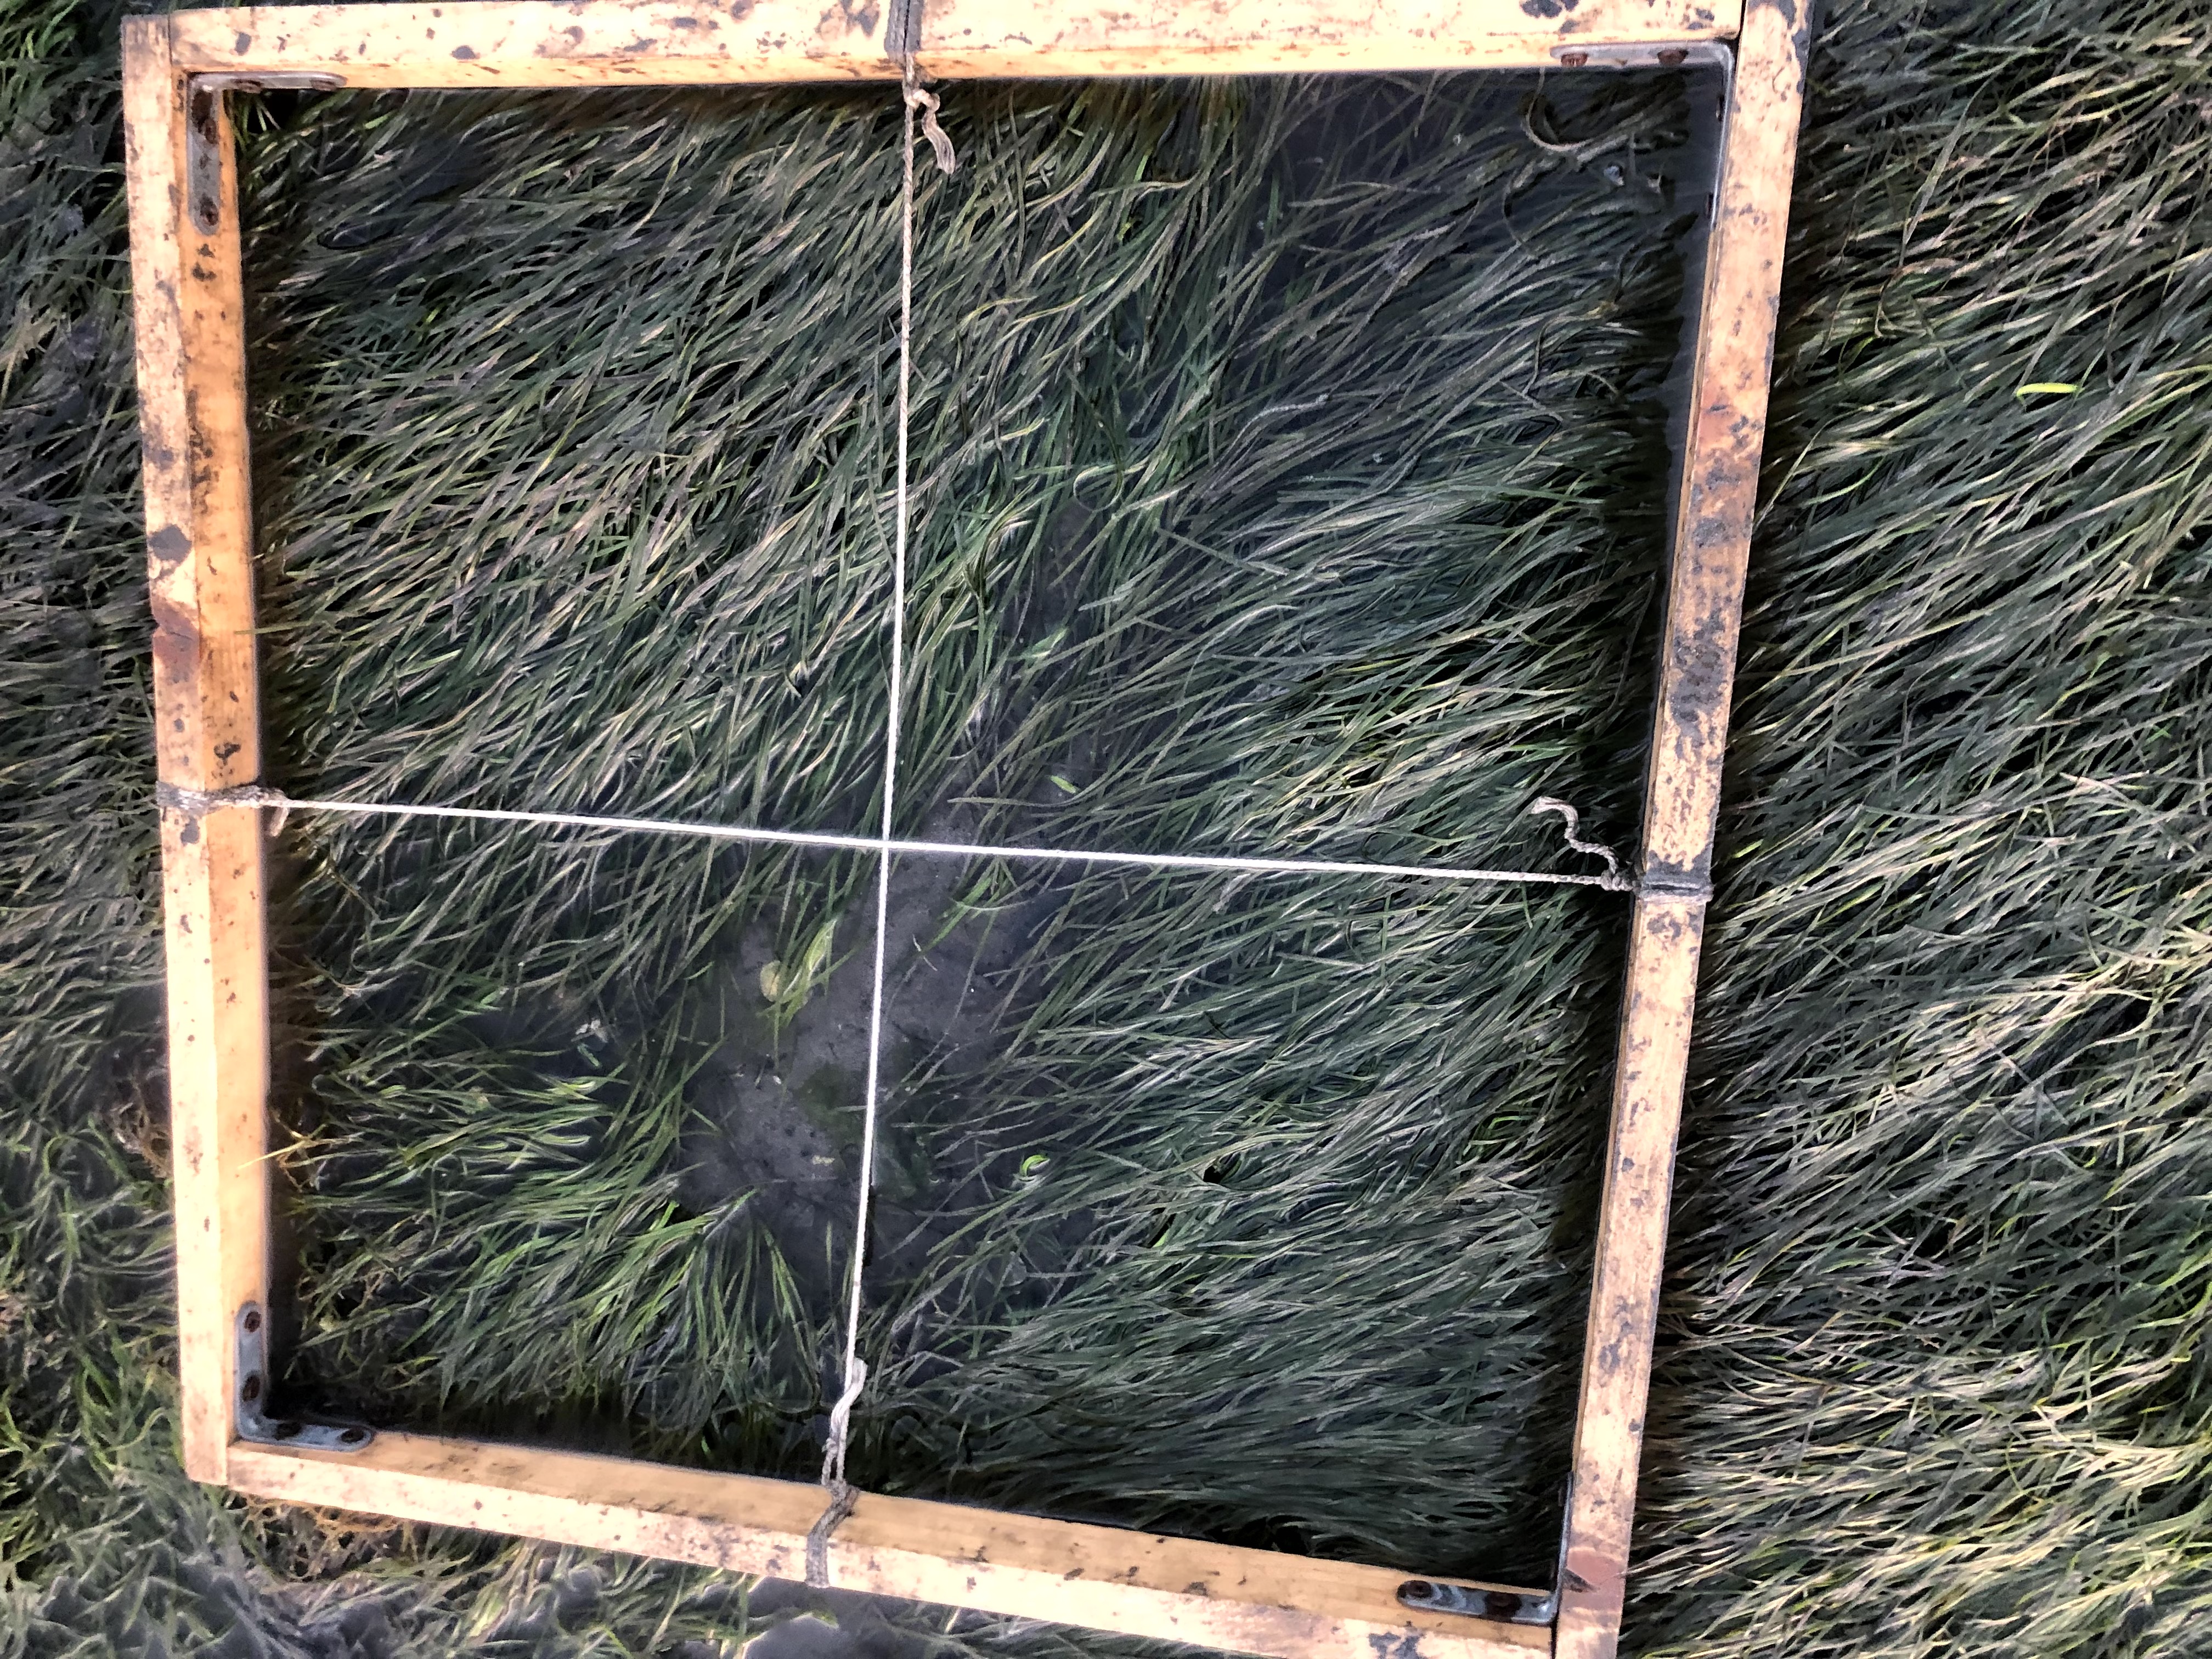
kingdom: Plantae
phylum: Tracheophyta
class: Liliopsida
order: Alismatales
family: Zosteraceae
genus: Zostera
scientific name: Zostera noltii
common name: Dwarf eelgrass
